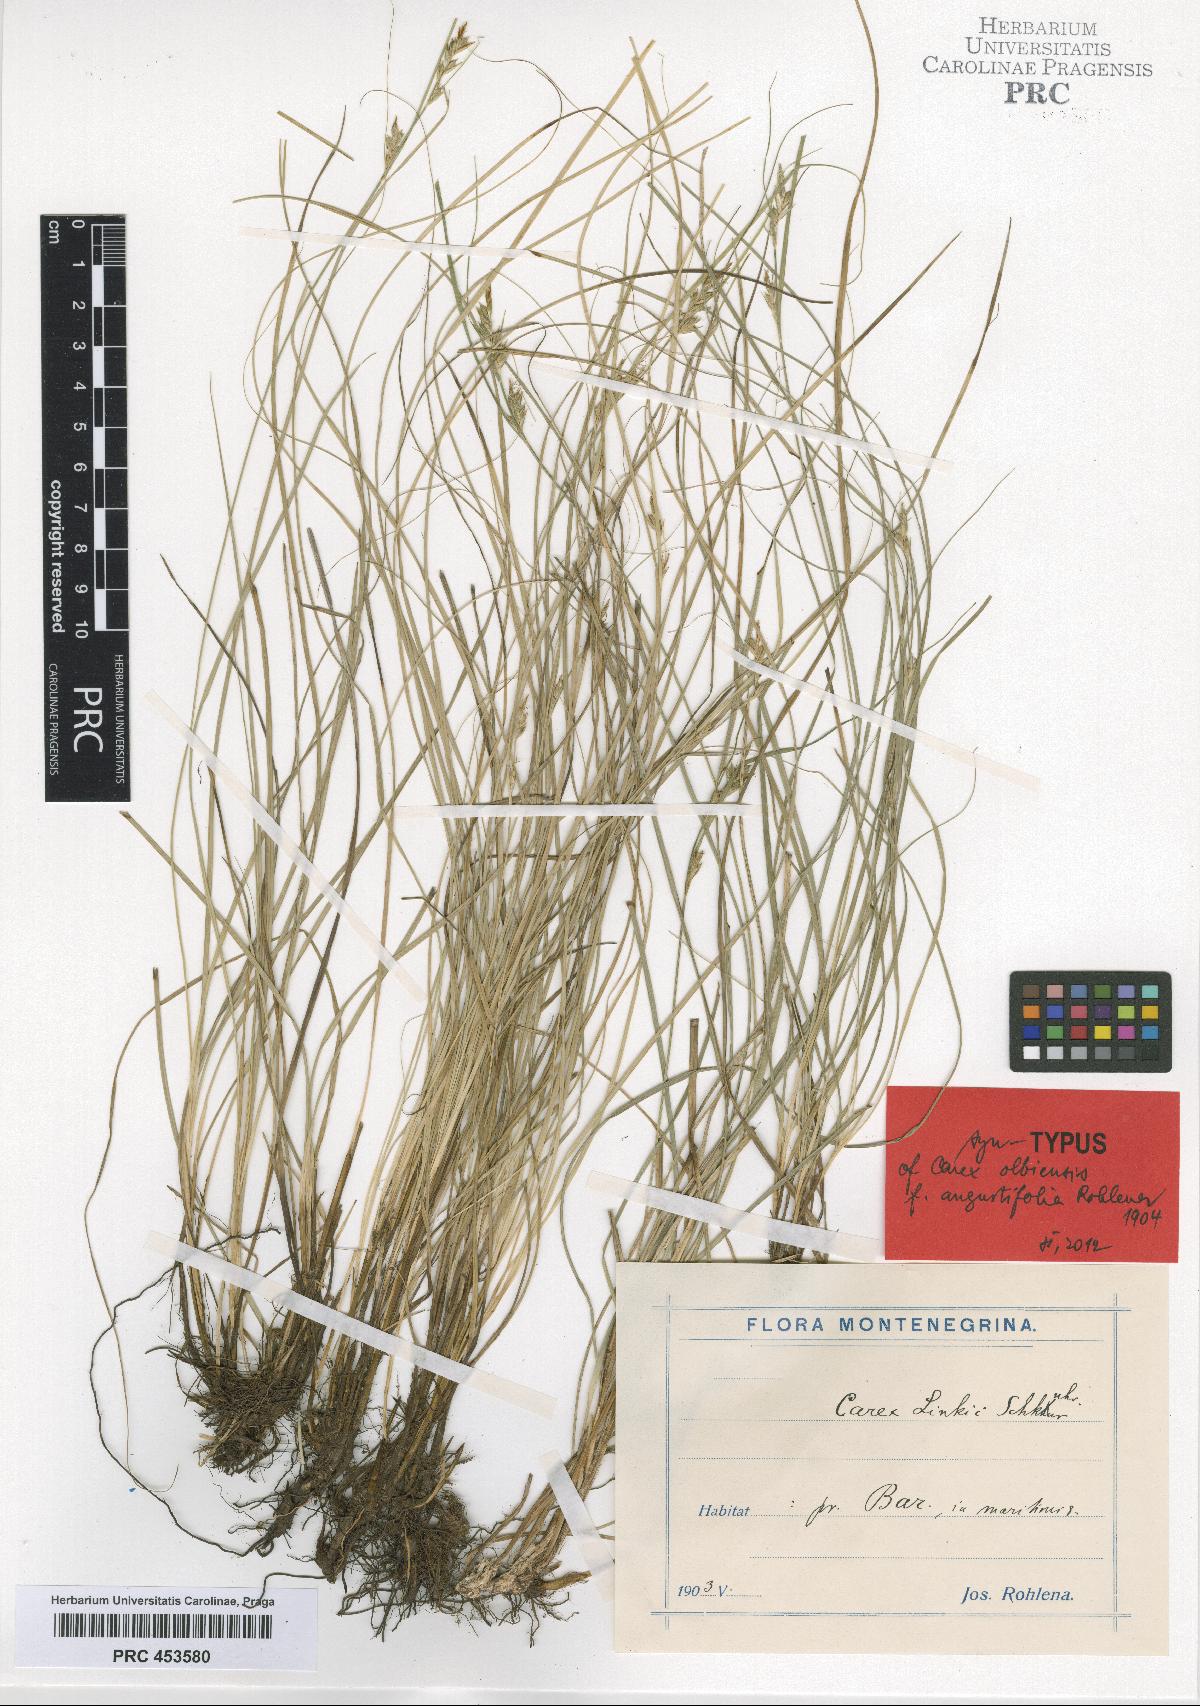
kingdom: Plantae
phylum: Tracheophyta
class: Liliopsida
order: Poales
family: Cyperaceae
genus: Carex
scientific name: Carex distachya
